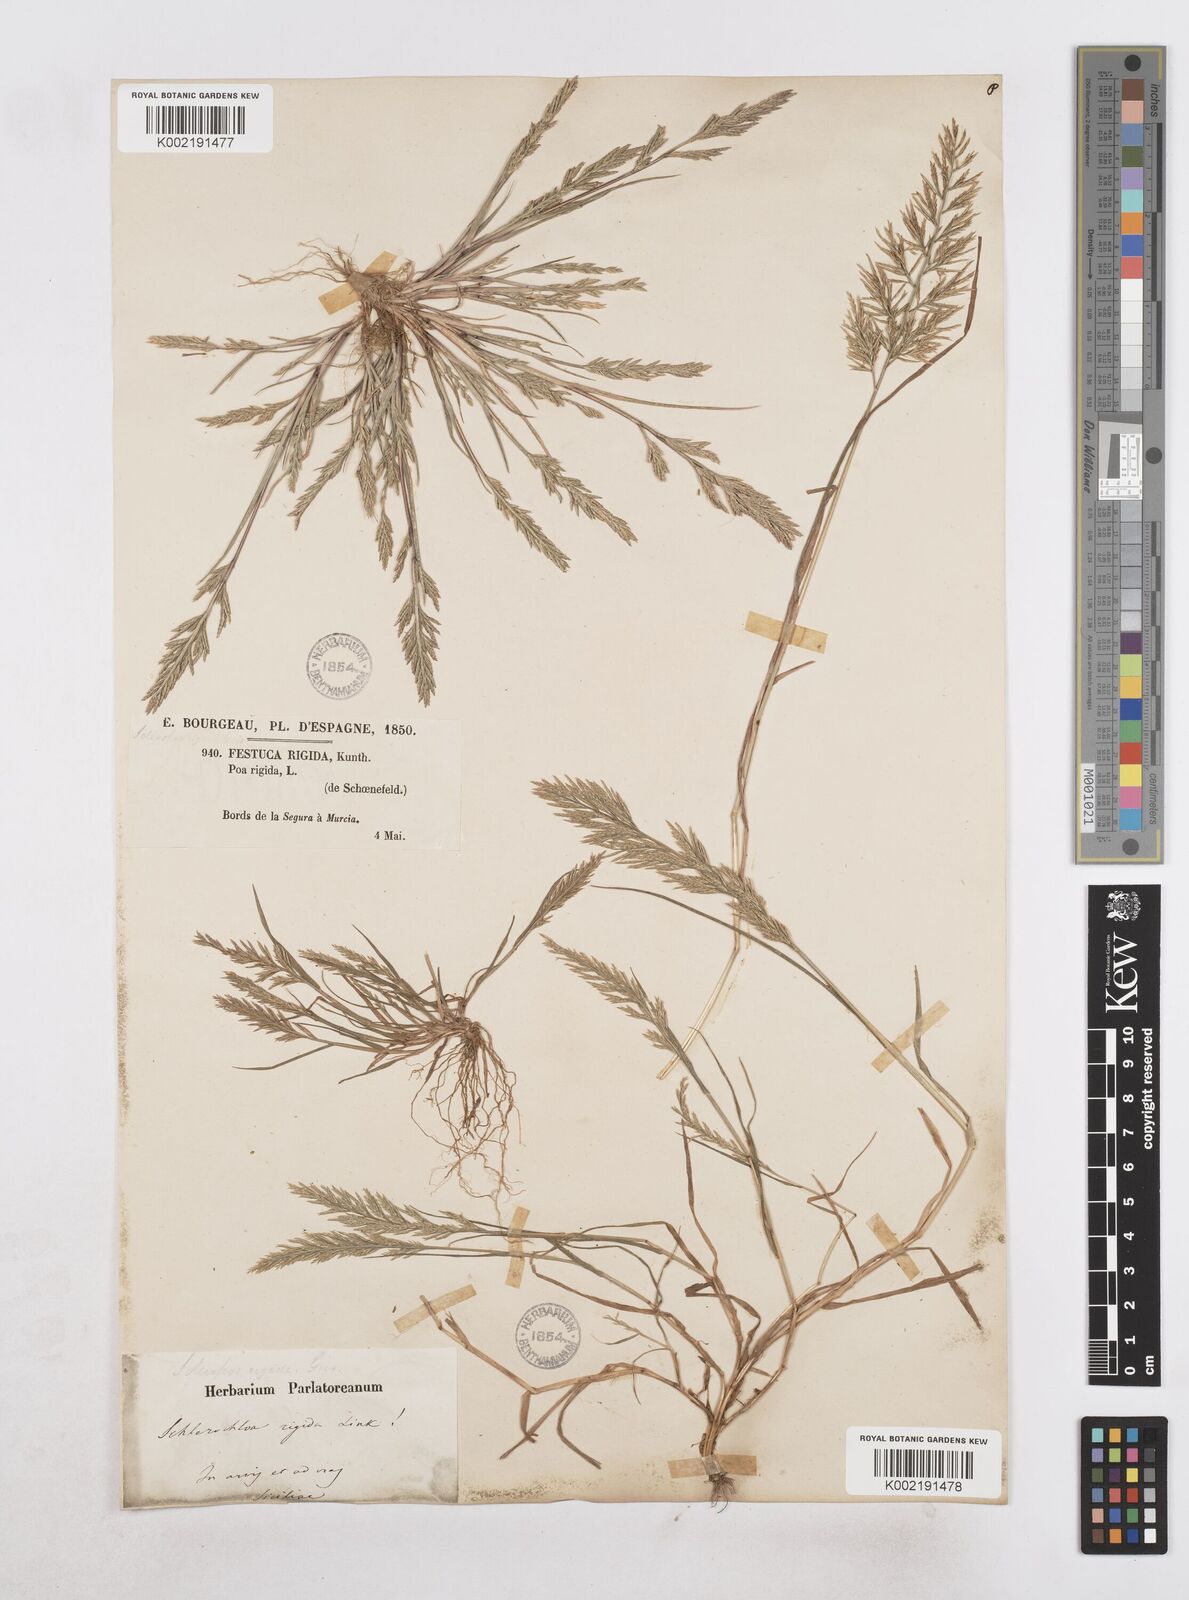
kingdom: Plantae
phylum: Tracheophyta
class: Liliopsida
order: Poales
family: Poaceae
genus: Catapodium
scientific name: Catapodium rigidum
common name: Fern-grass
